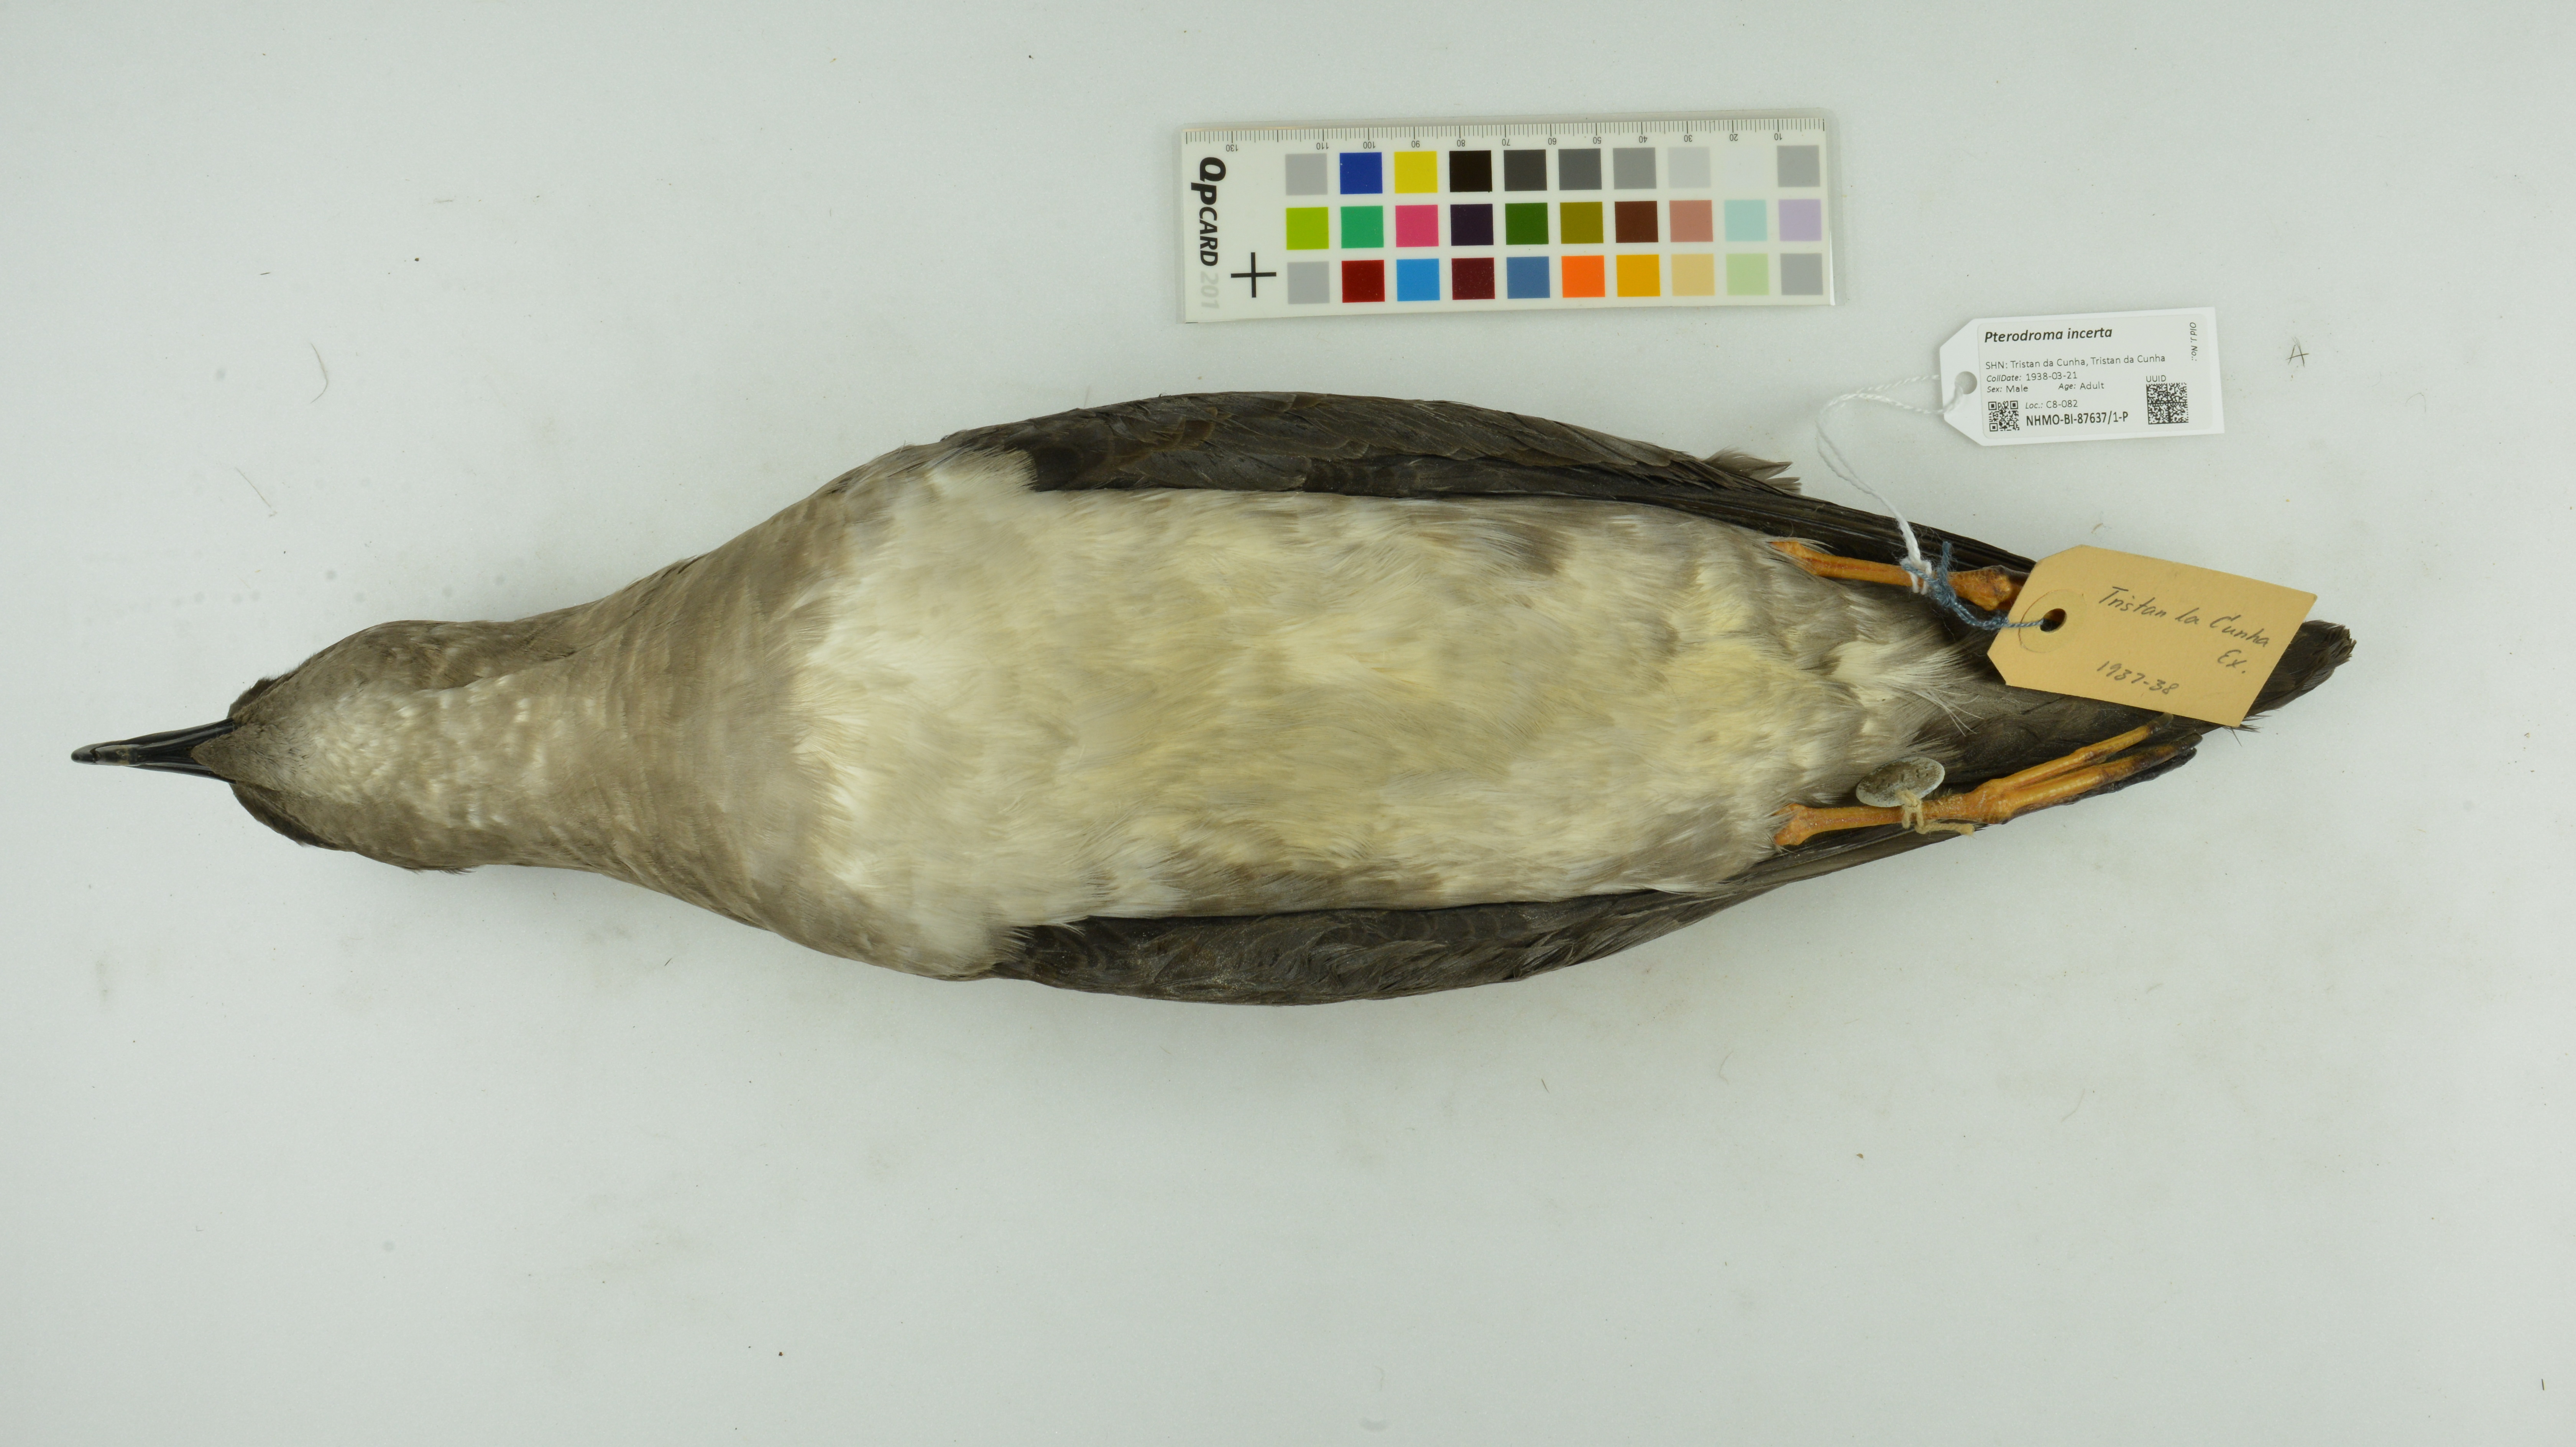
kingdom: Animalia
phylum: Chordata
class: Aves
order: Procellariiformes
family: Procellariidae
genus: Pterodroma
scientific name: Pterodroma incerta
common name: Atlantic petrel
